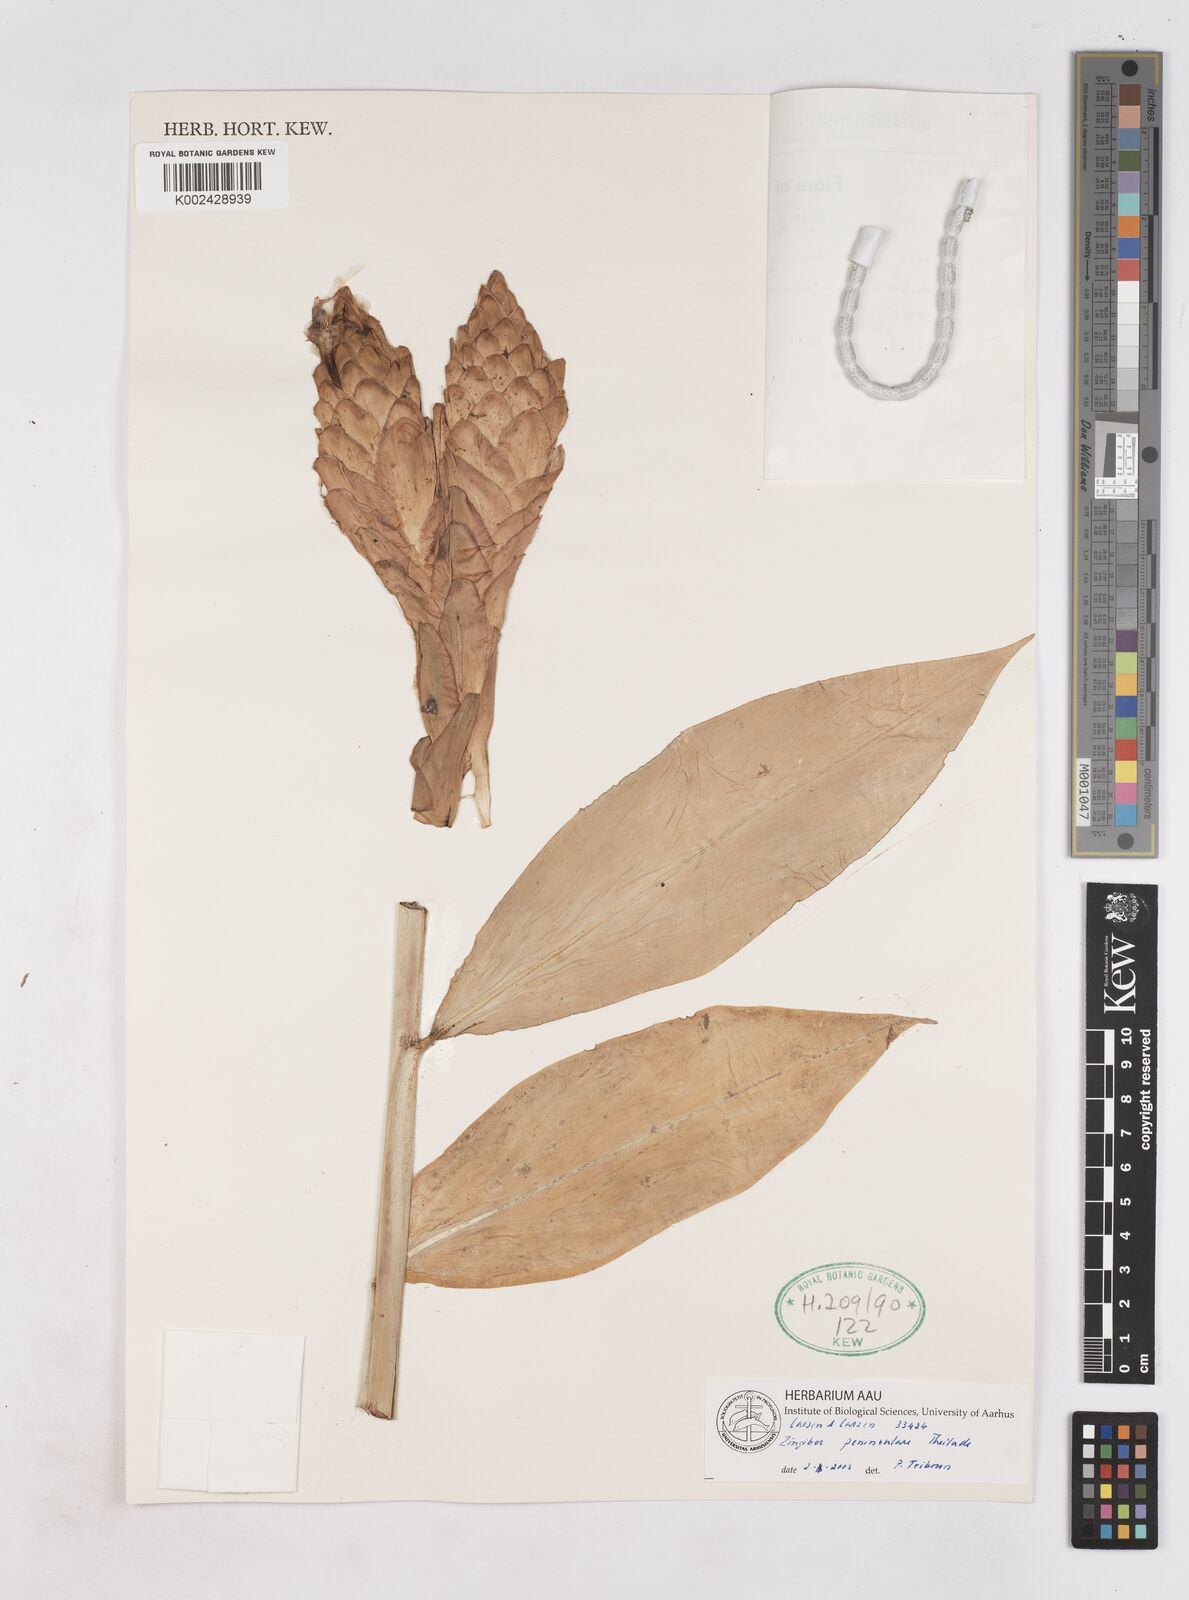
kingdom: Plantae
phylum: Tracheophyta
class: Liliopsida
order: Zingiberales
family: Zingiberaceae
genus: Zingiber
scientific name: Zingiber montanum
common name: Bengal ginger
